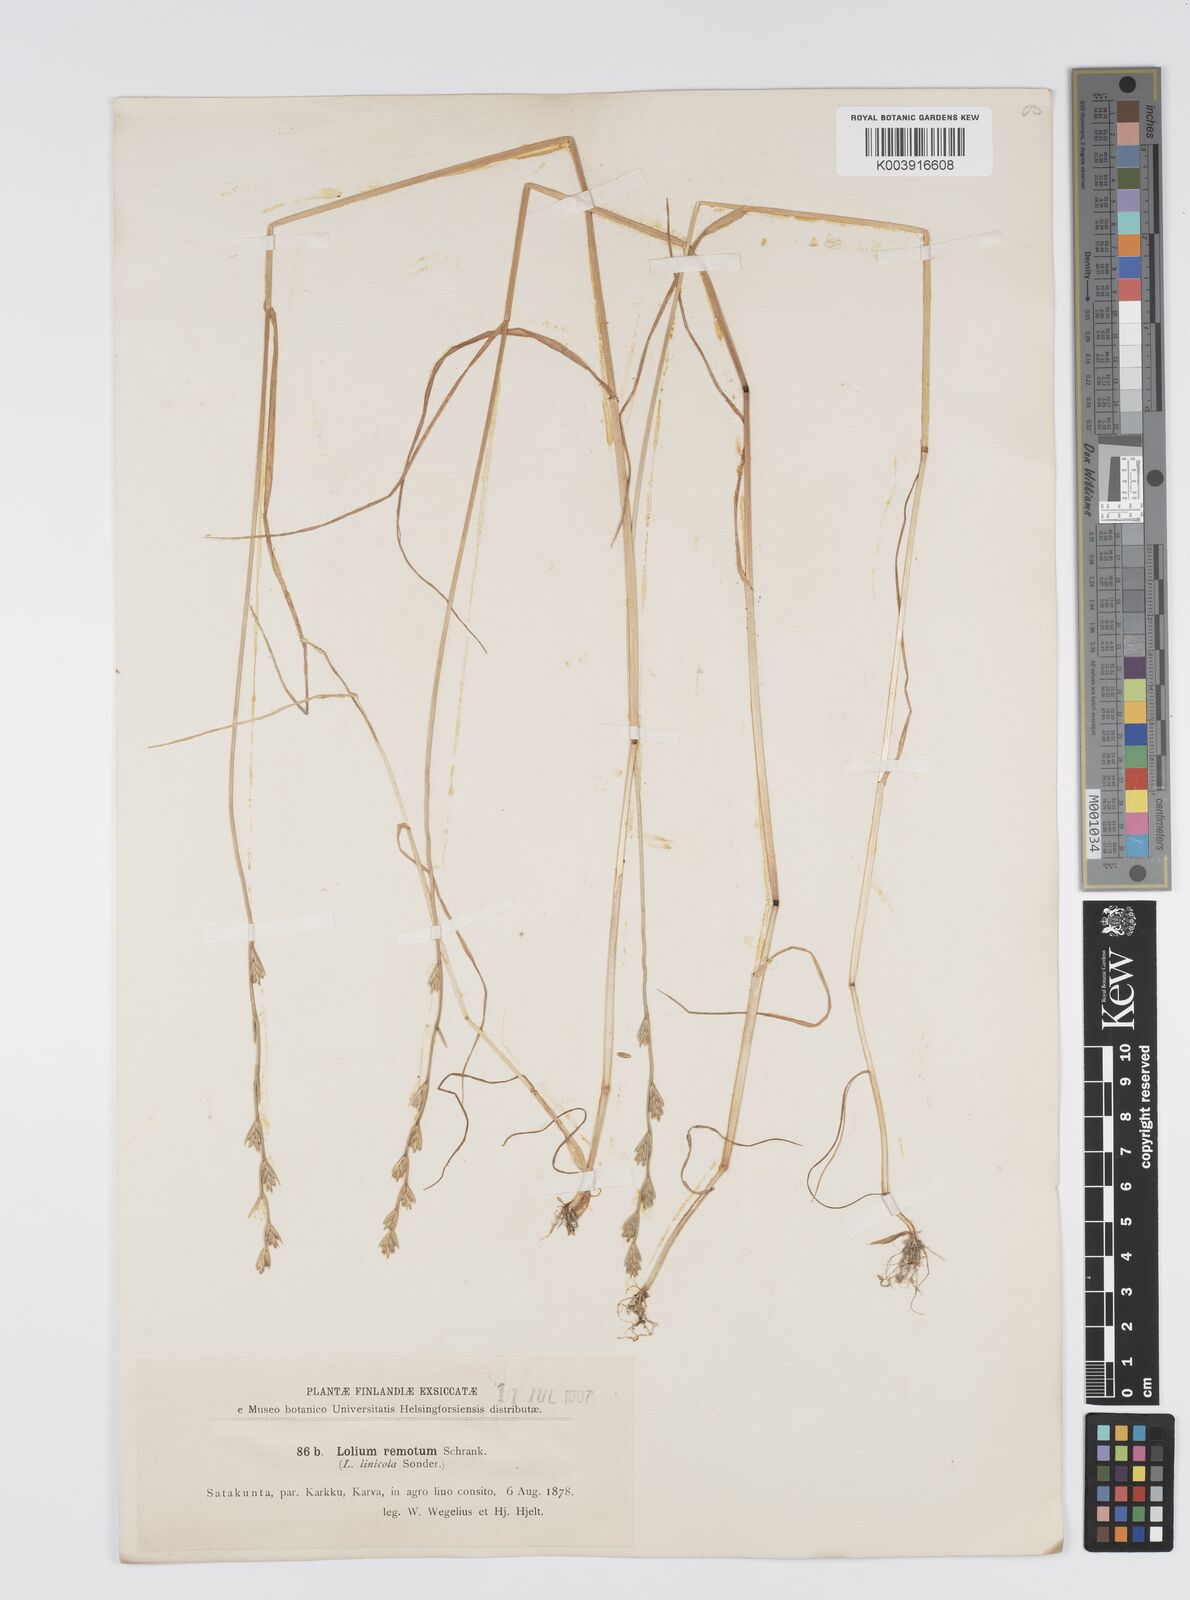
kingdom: Plantae
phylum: Tracheophyta
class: Liliopsida
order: Poales
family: Poaceae
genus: Lolium
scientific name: Lolium remotum
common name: Flaxfield rye-grass
